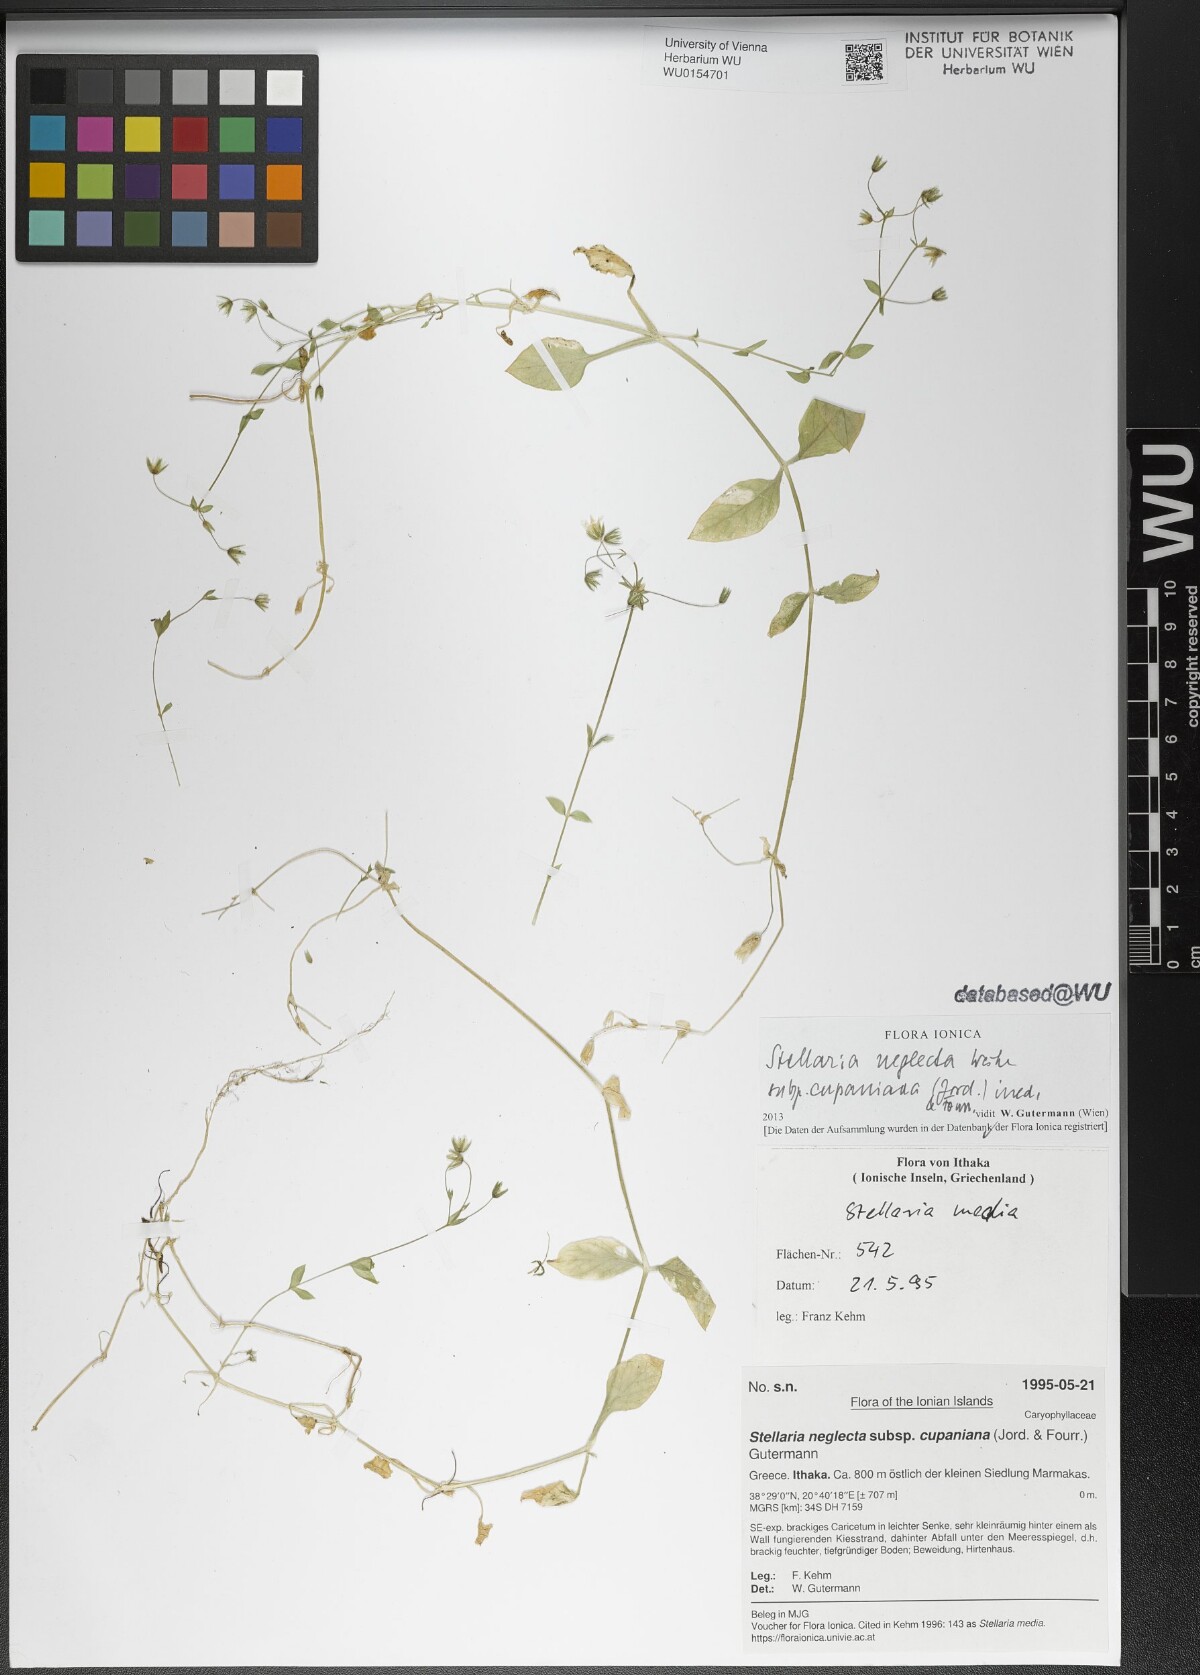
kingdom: Plantae
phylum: Tracheophyta
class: Magnoliopsida
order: Caryophyllales
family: Caryophyllaceae
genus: Stellaria
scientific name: Stellaria cupaniana
